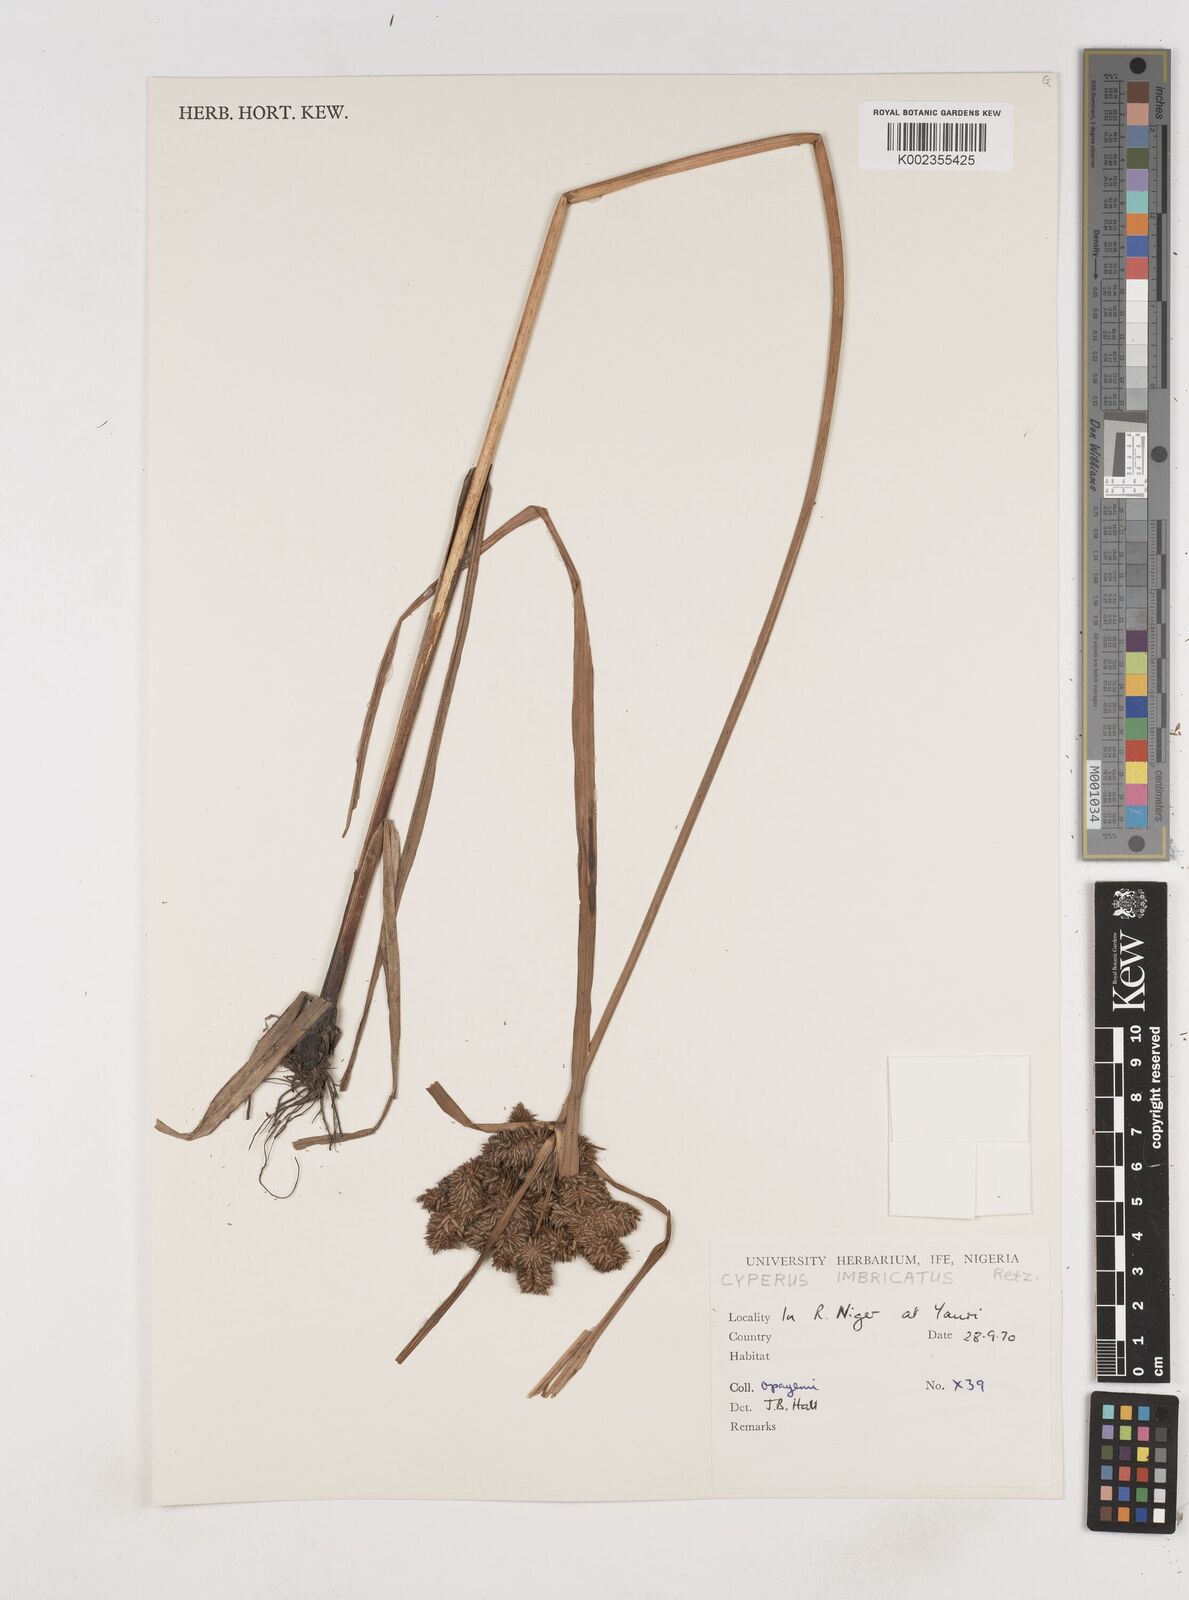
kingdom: Plantae
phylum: Tracheophyta
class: Liliopsida
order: Poales
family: Cyperaceae
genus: Cyperus
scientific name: Cyperus imbricatus
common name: Shingle flatsedge
